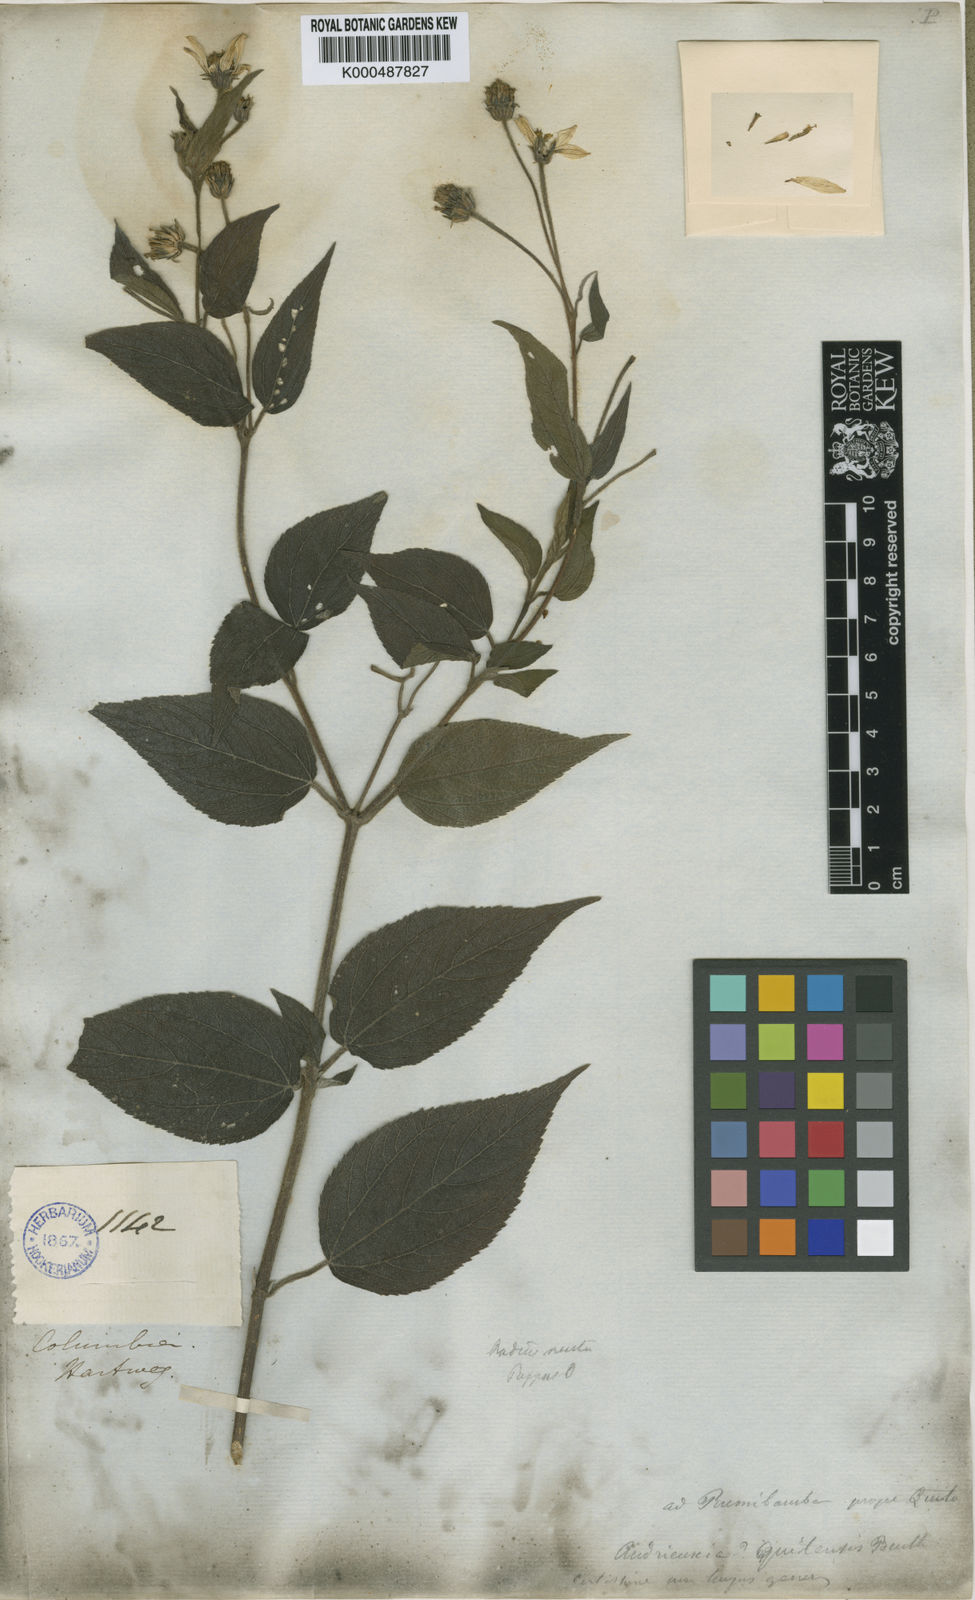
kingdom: Plantae
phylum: Tracheophyta
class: Magnoliopsida
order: Asterales
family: Asteraceae
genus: Hymenostephium
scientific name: Hymenostephium quitensis
